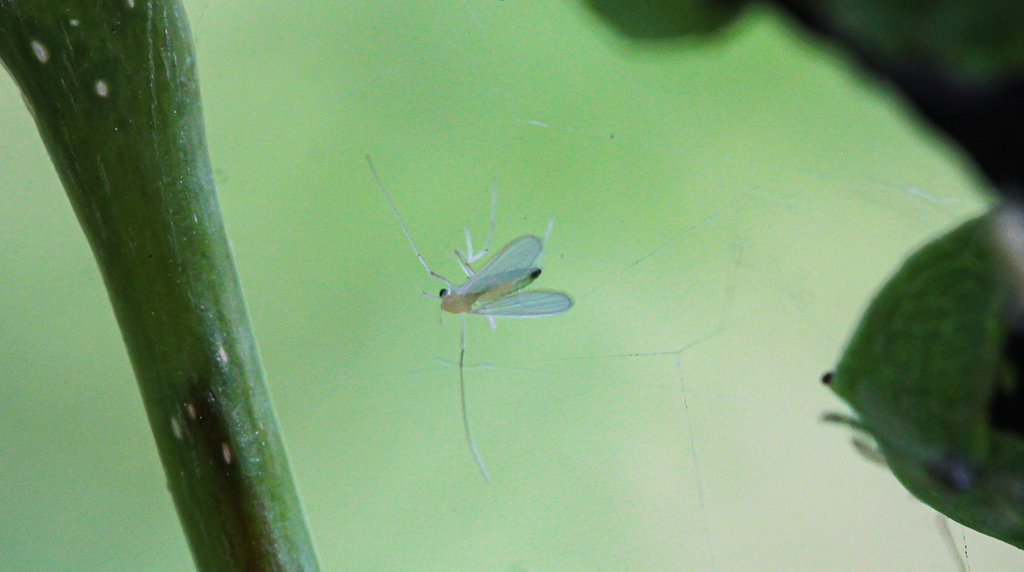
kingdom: Animalia
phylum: Arthropoda
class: Insecta
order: Diptera
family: Chironomidae
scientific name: Chironomidae
